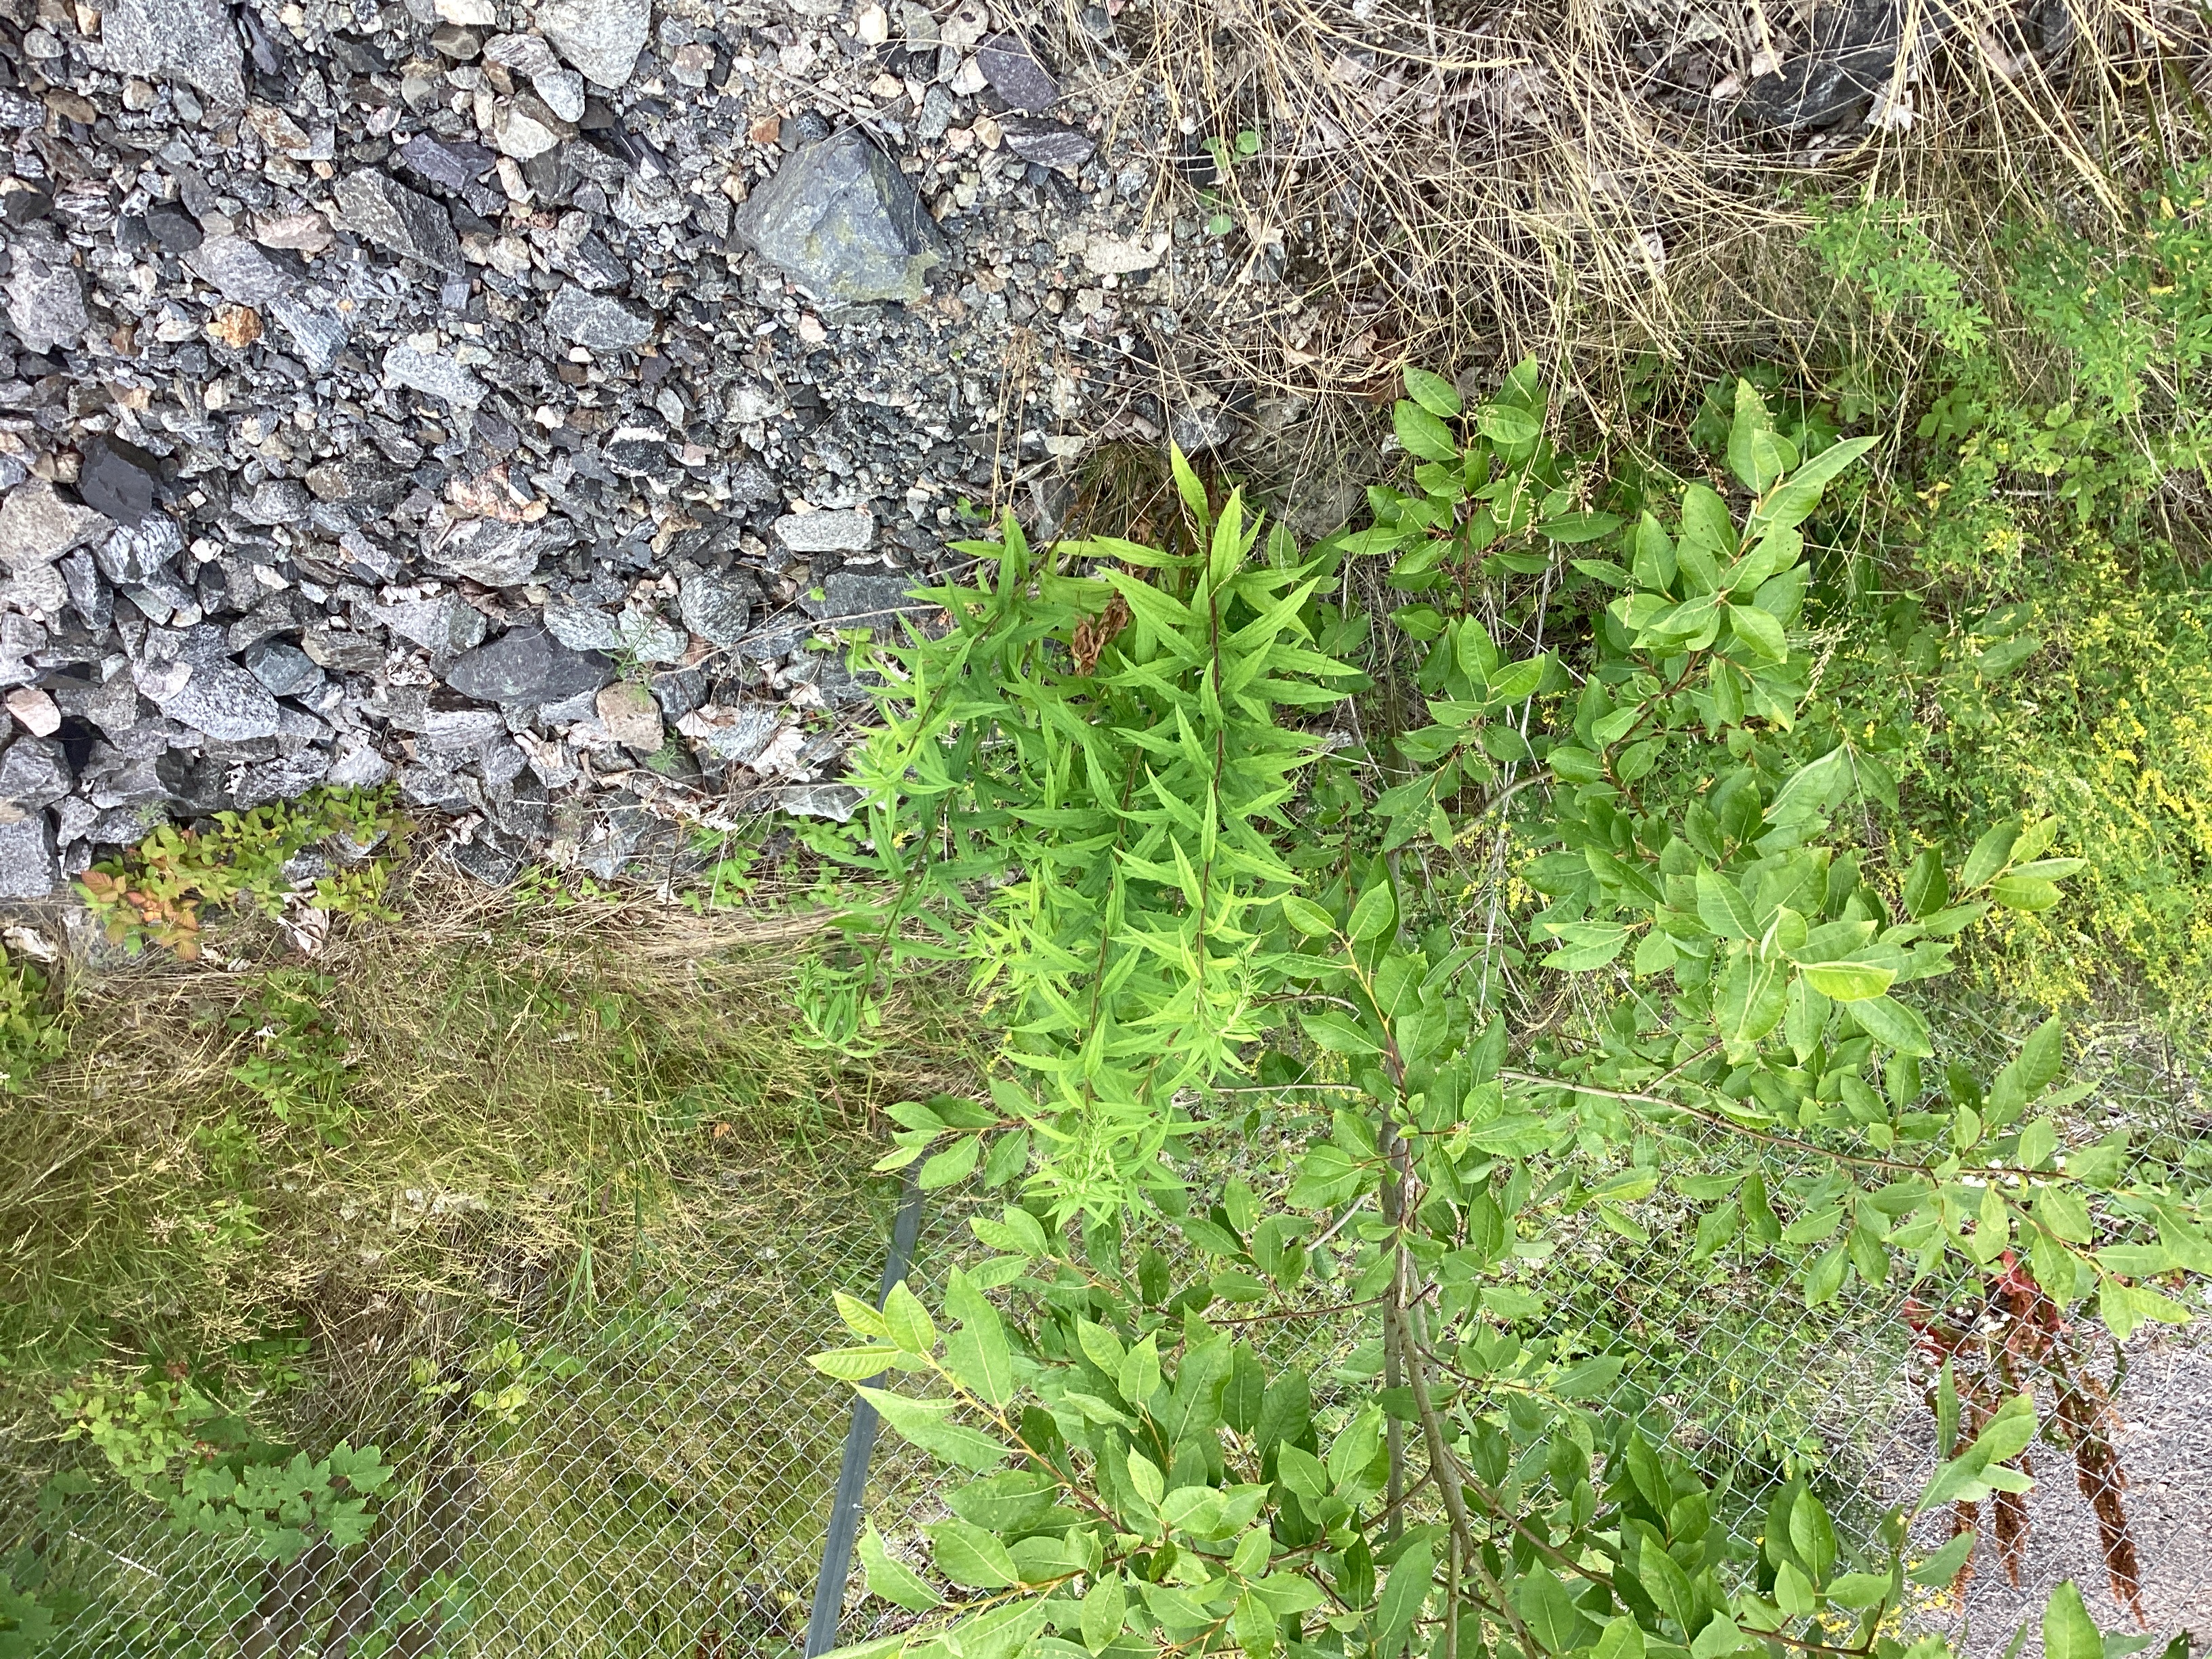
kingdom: Plantae
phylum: Tracheophyta
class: Magnoliopsida
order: Asterales
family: Asteraceae
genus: Solidago
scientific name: Solidago canadensis
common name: kanadagullris
